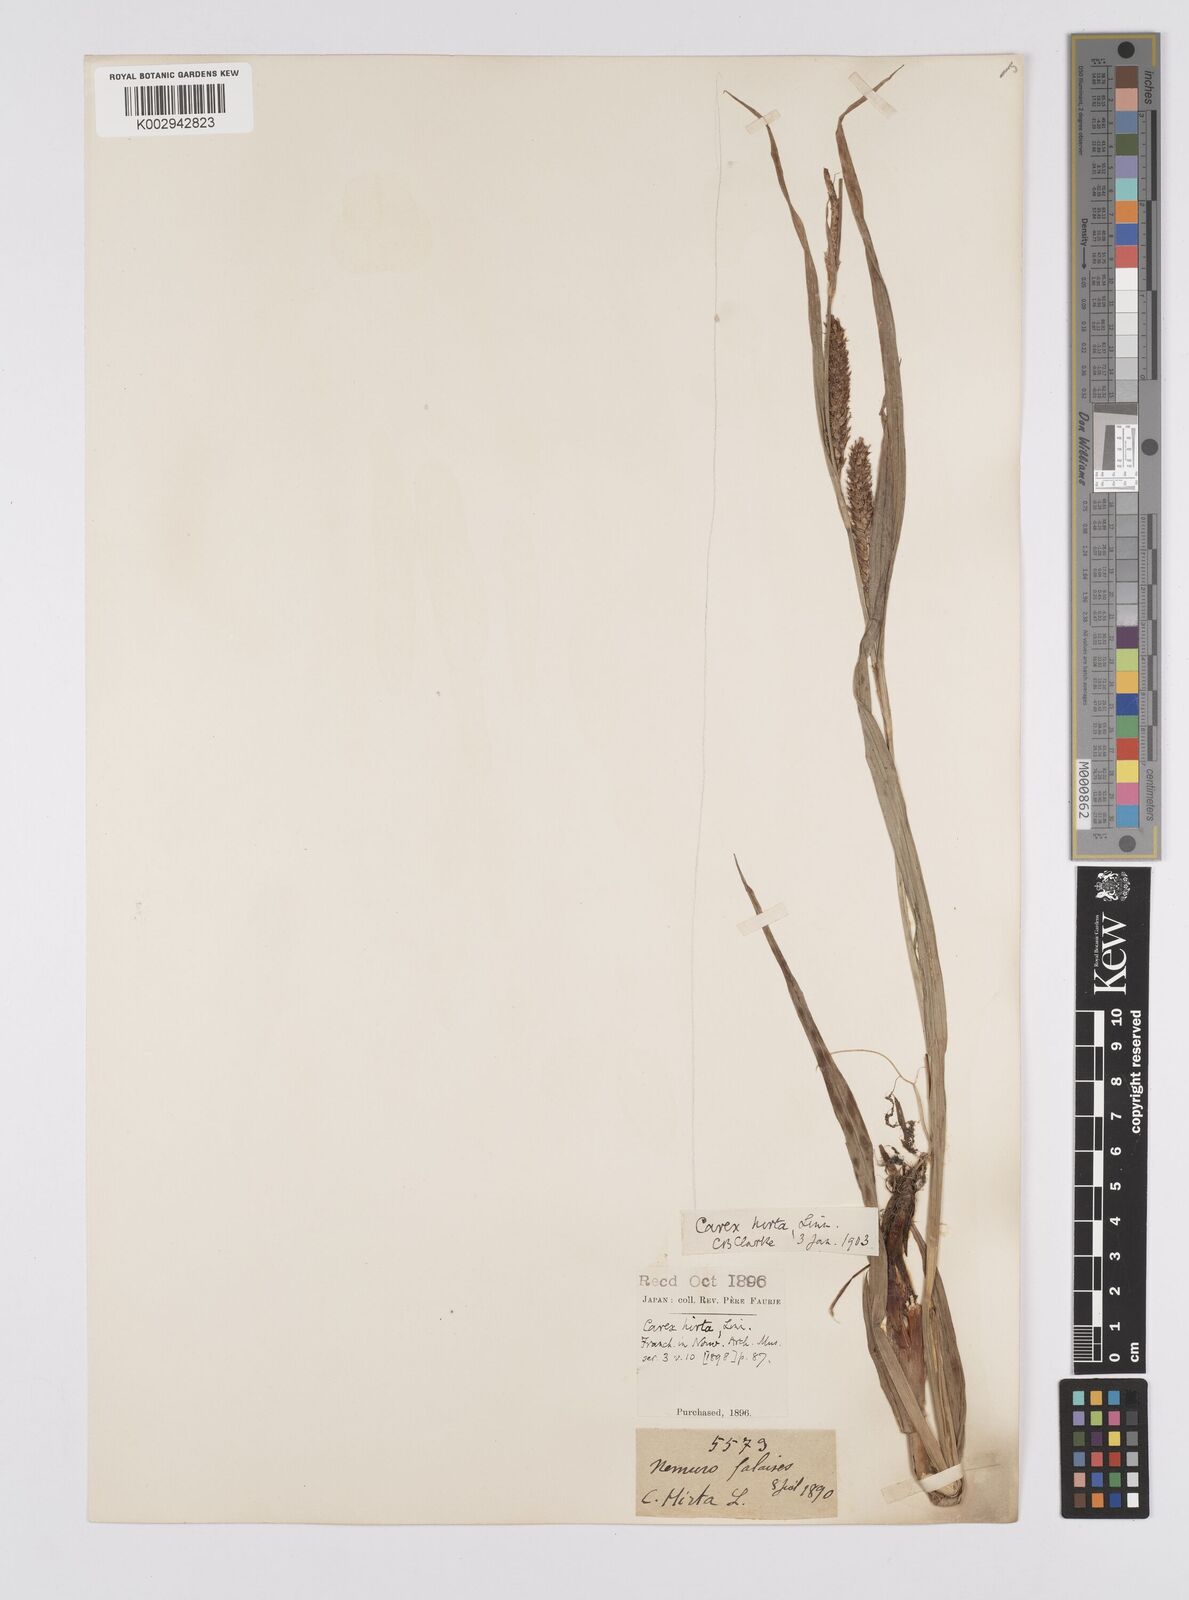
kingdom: Plantae
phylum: Tracheophyta
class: Liliopsida
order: Poales
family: Cyperaceae
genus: Carex
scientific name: Carex drymophila
